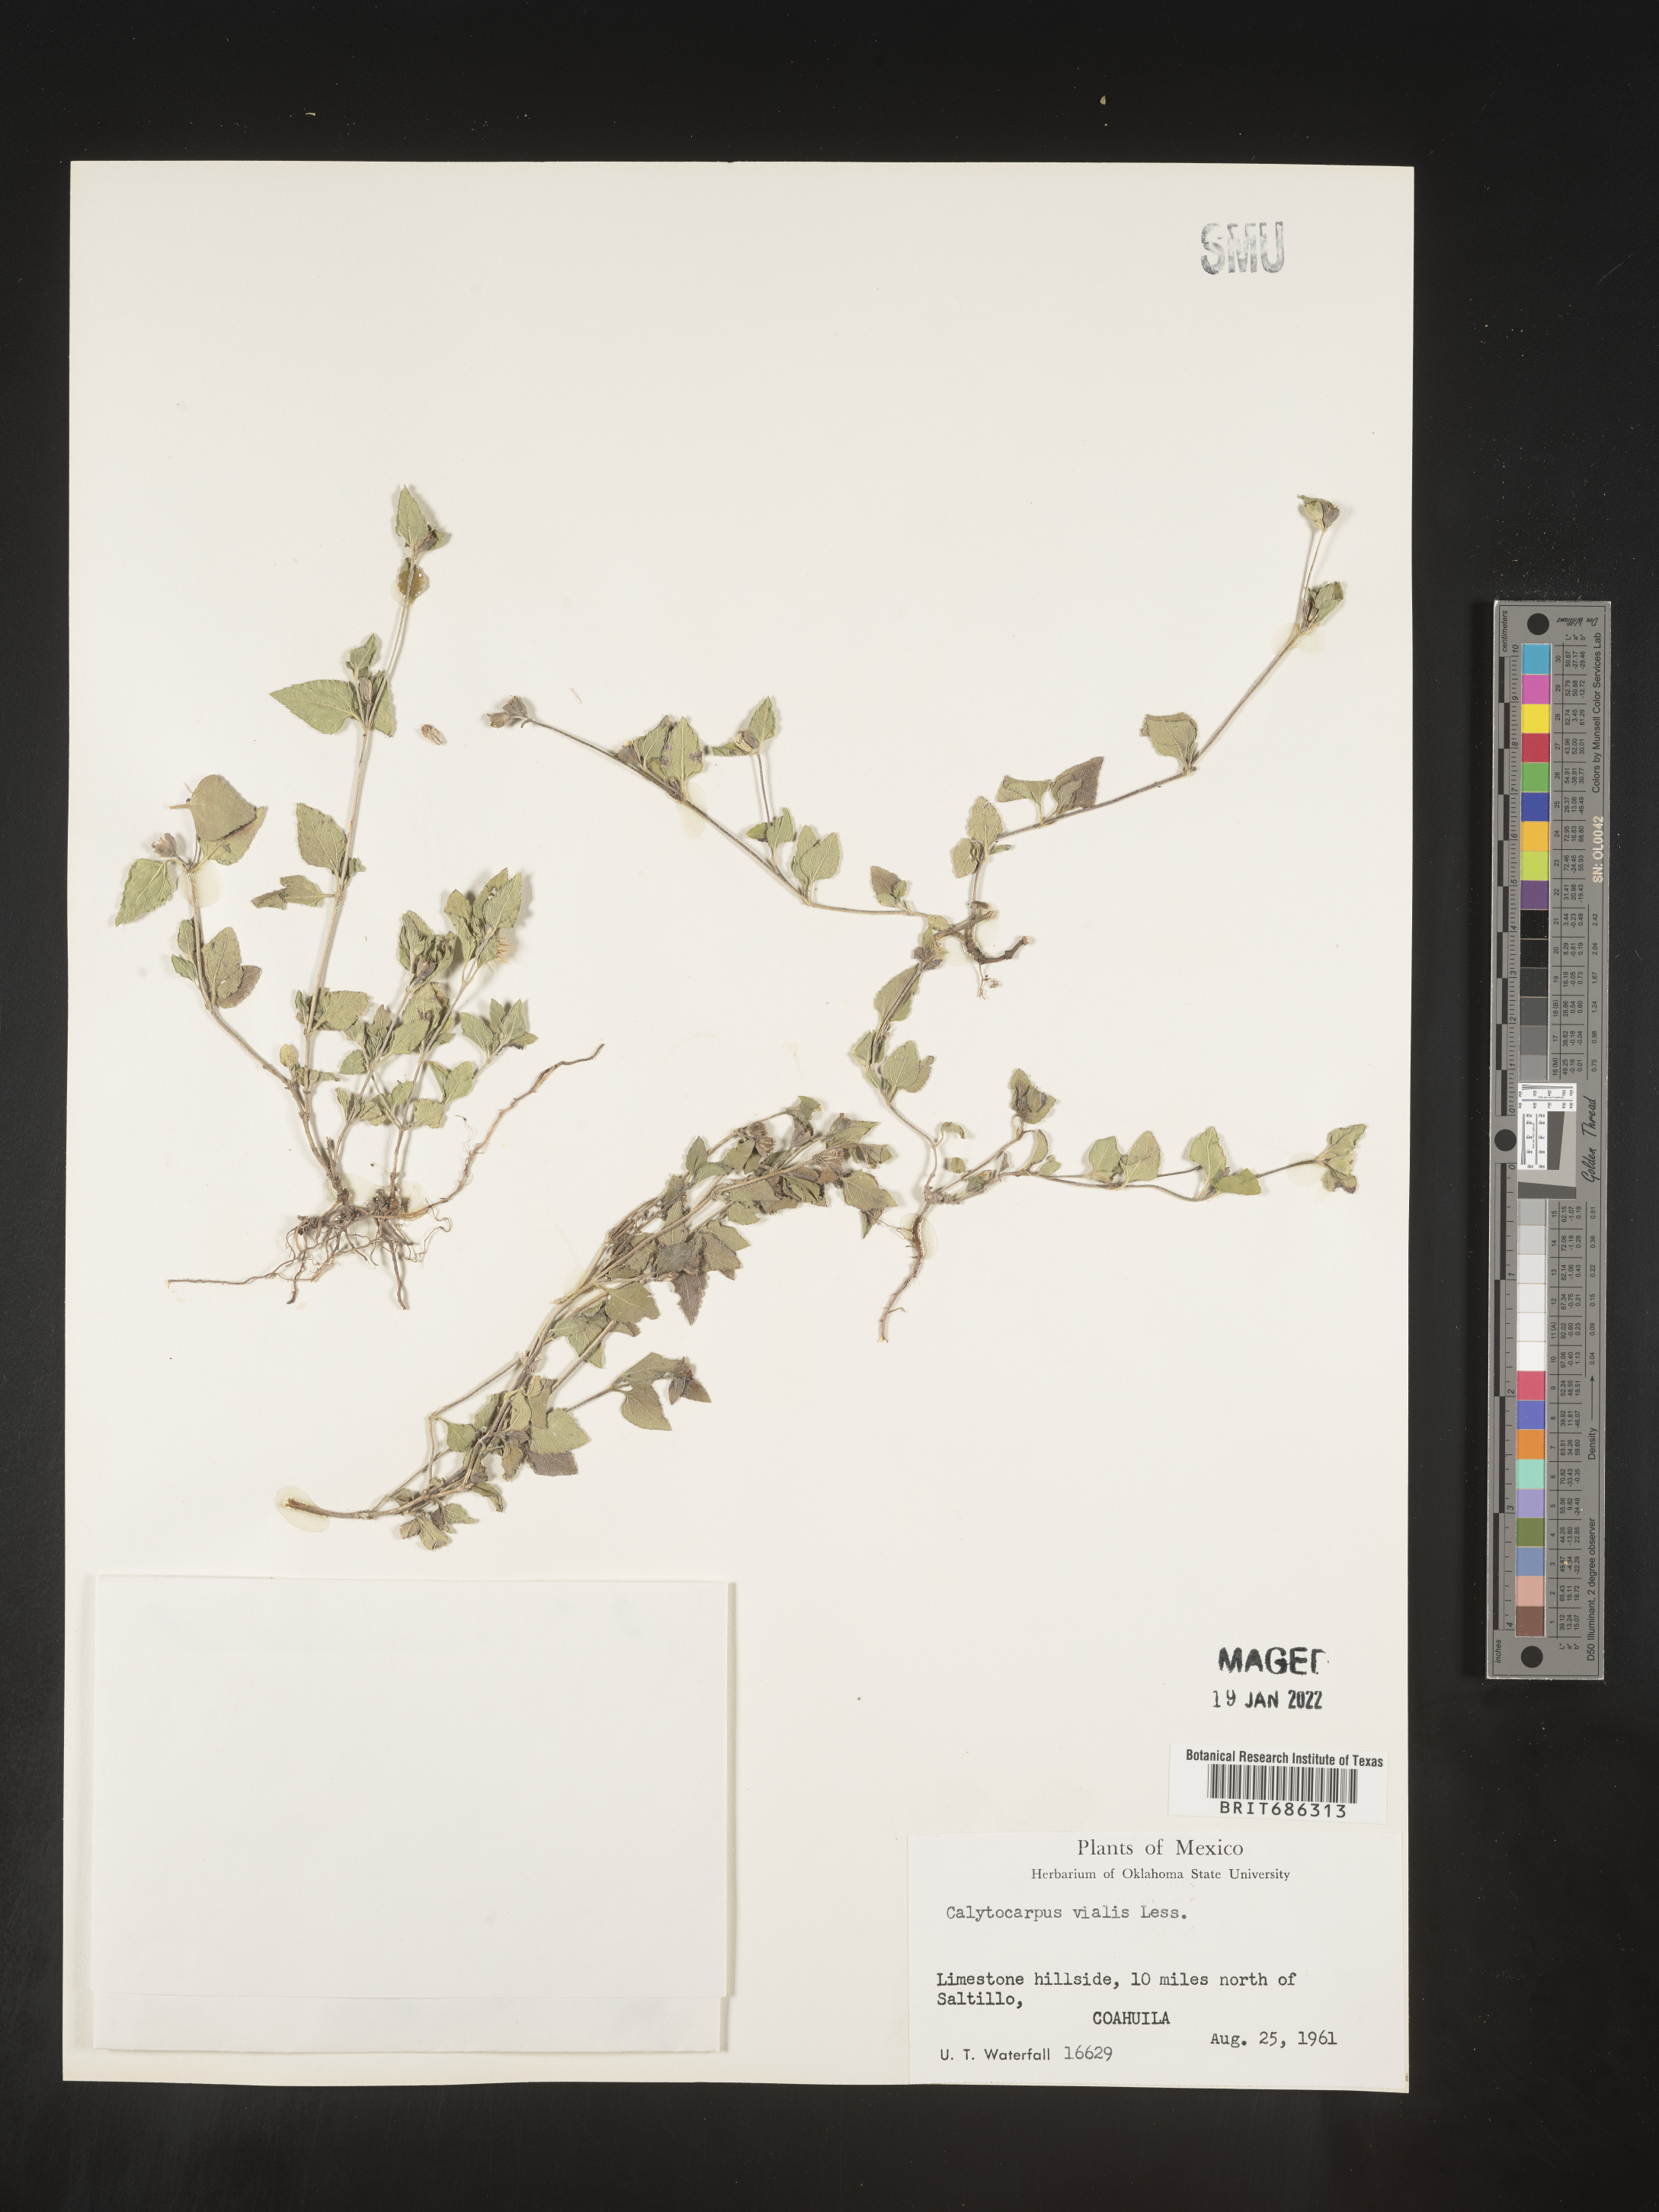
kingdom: Plantae
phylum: Tracheophyta
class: Magnoliopsida
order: Asterales
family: Asteraceae
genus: Calyptocarpus
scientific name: Calyptocarpus
